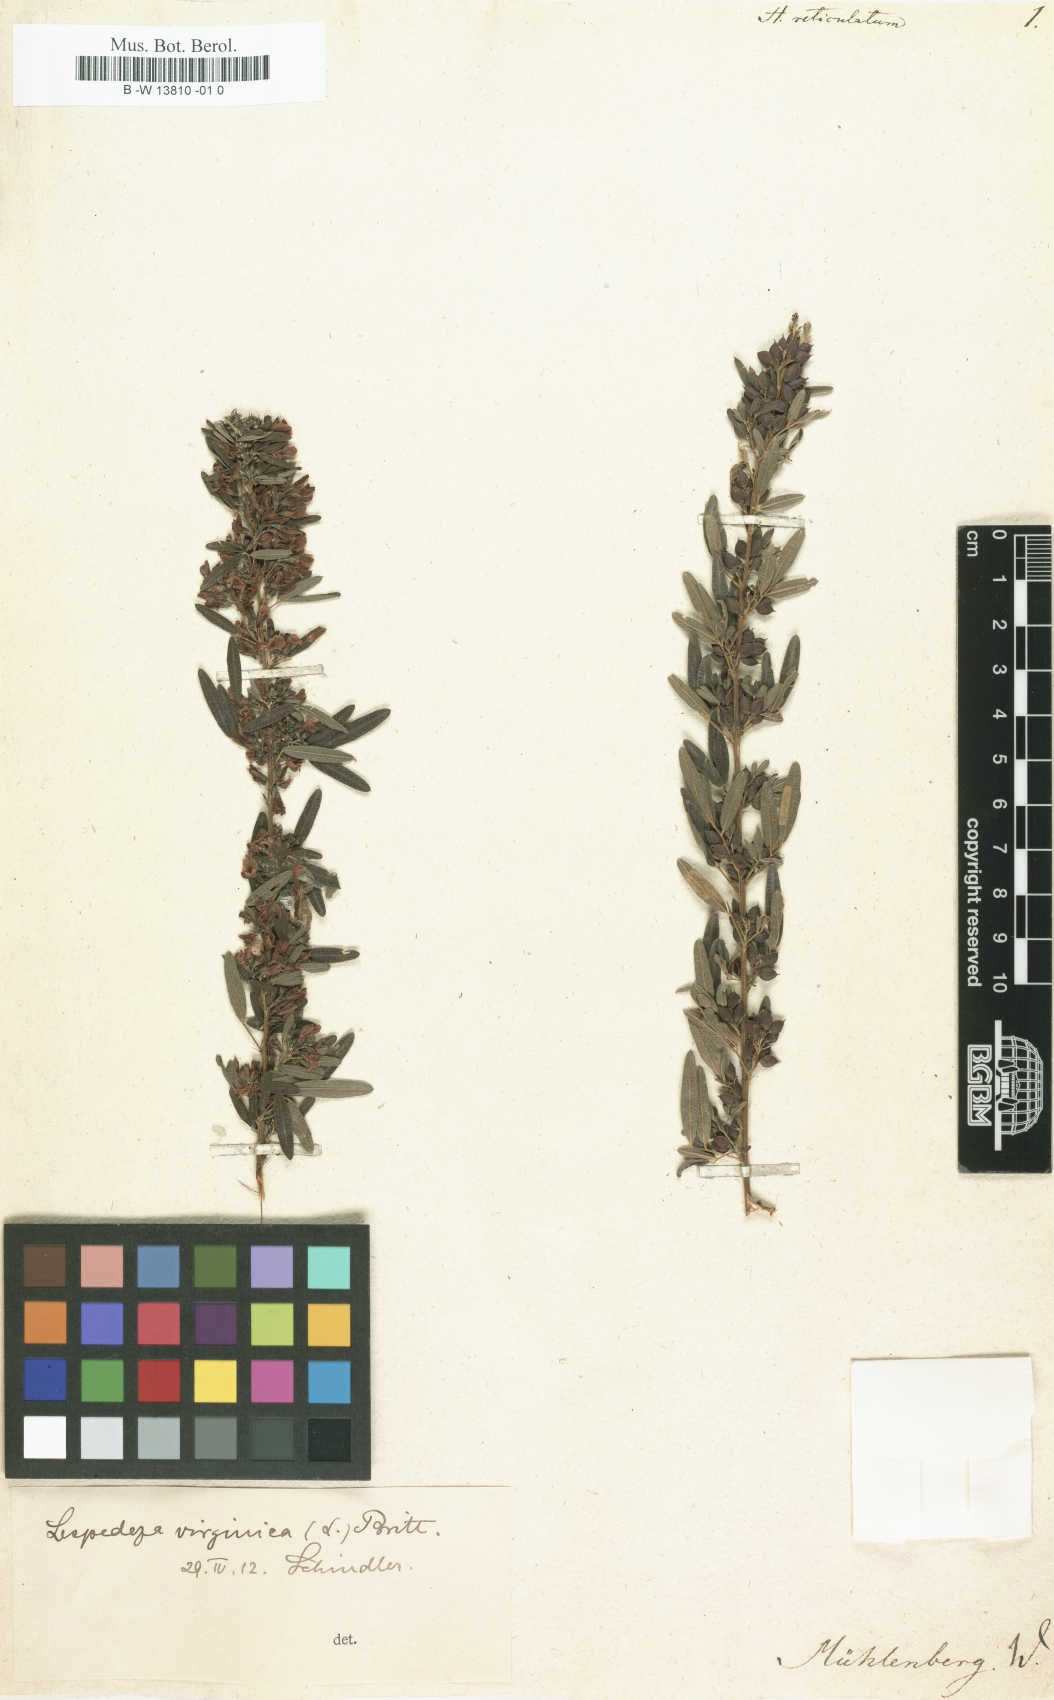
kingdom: Plantae
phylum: Tracheophyta
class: Magnoliopsida
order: Fabales
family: Fabaceae
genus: Lespedeza
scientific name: Lespedeza virginica
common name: Slender bush-clover
